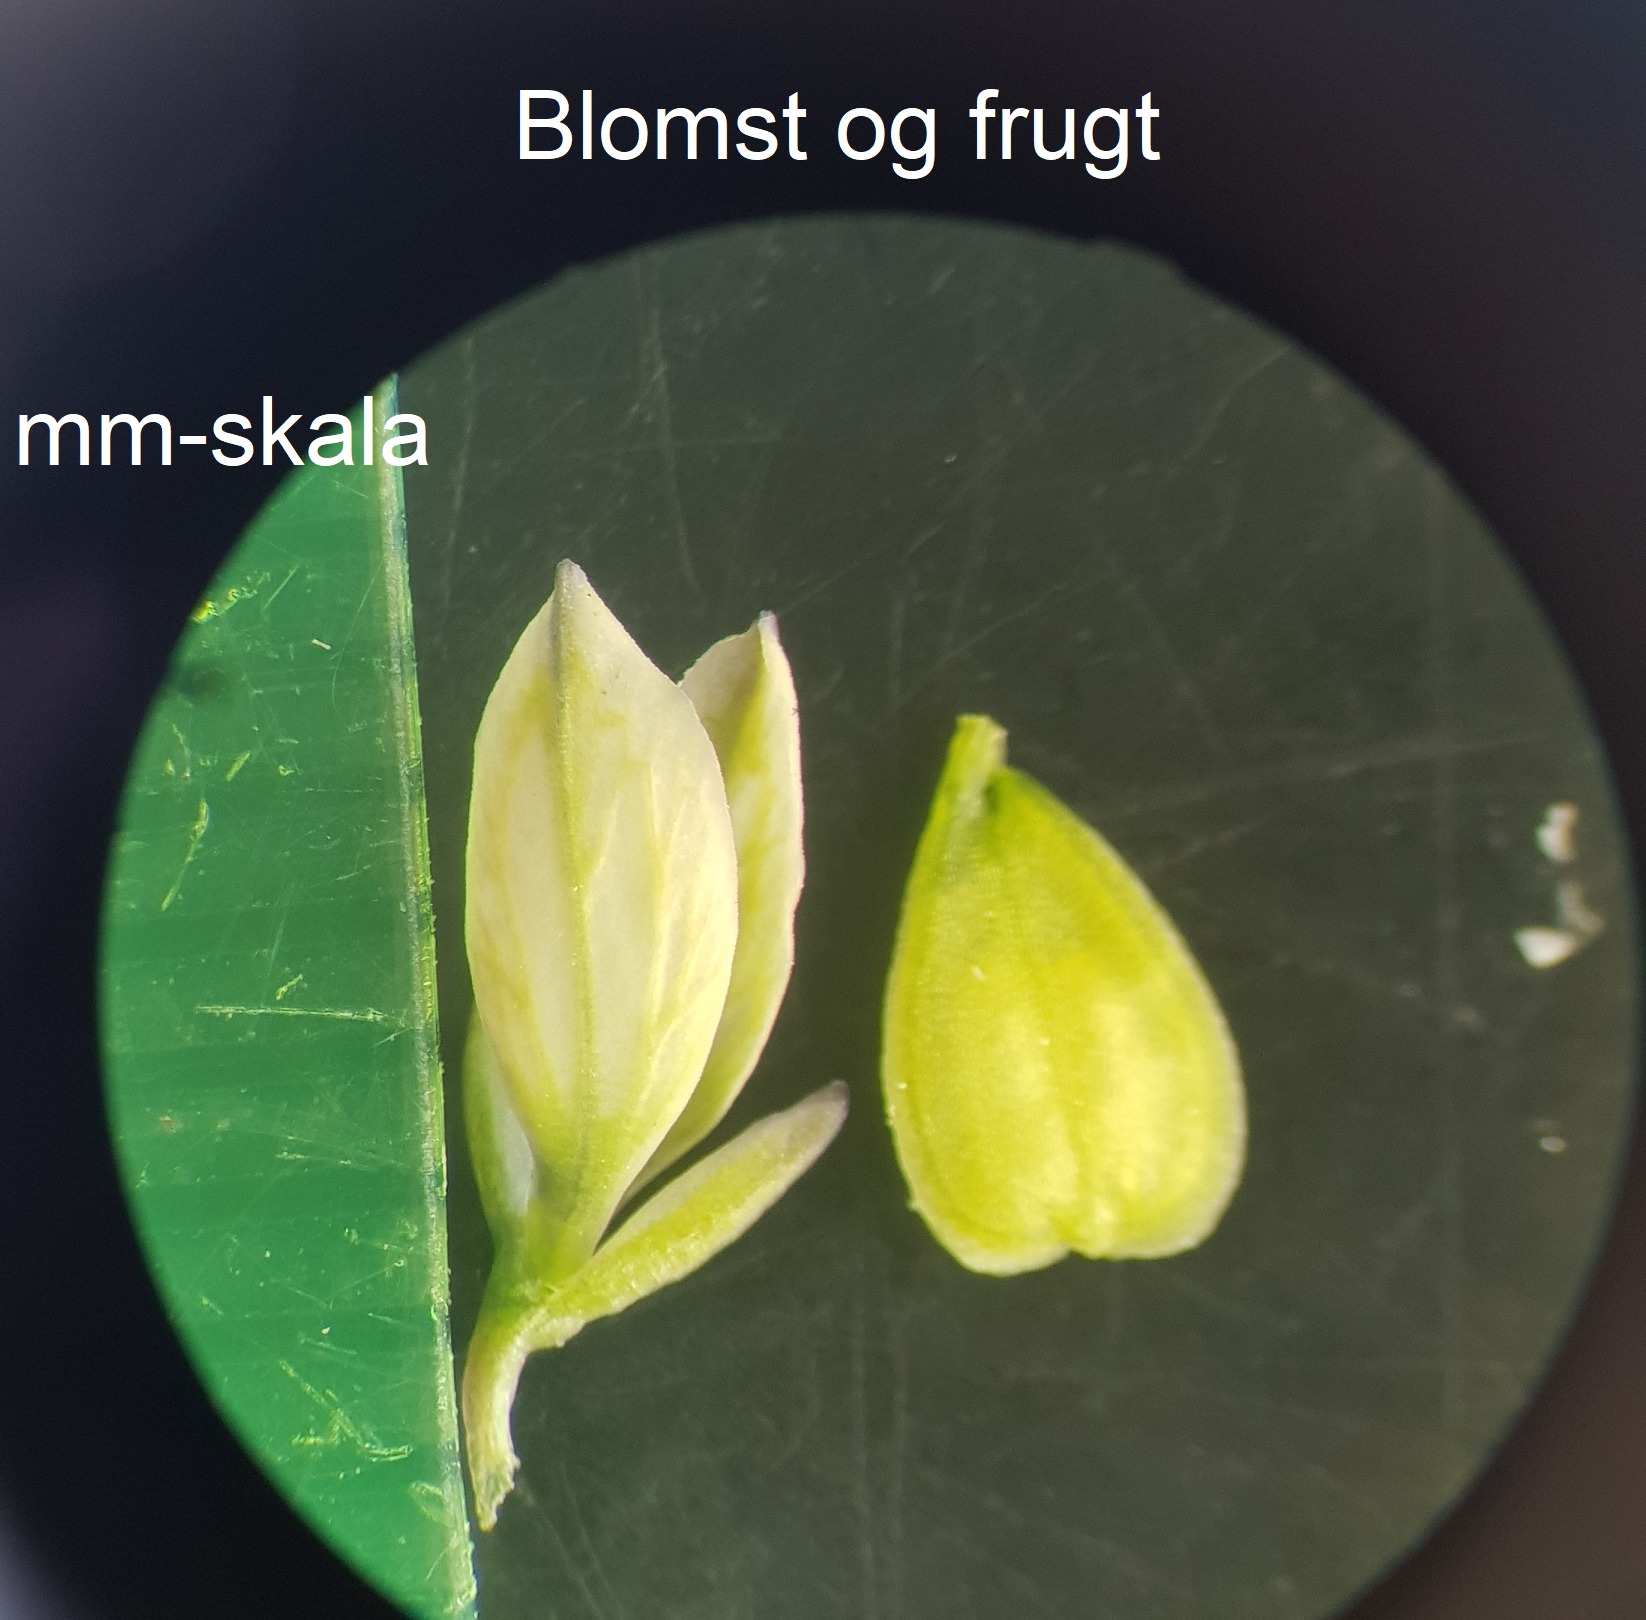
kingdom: Plantae
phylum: Tracheophyta
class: Magnoliopsida
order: Fabales
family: Polygalaceae
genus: Polygala
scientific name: Polygala vulgaris
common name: Almindelig mælkeurt
